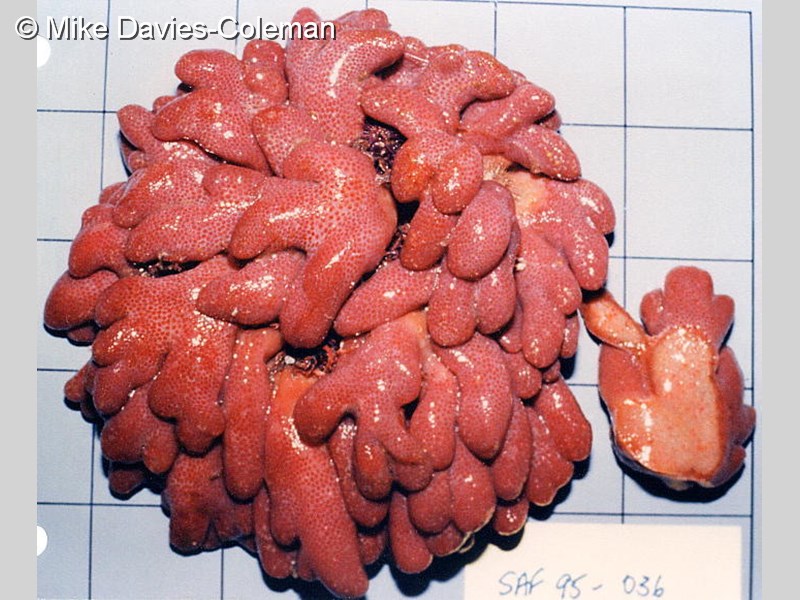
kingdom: Animalia
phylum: Chordata
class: Ascidiacea
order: Aplousobranchia
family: Pseudodistomidae
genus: Pseudodistoma
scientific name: Pseudodistoma
